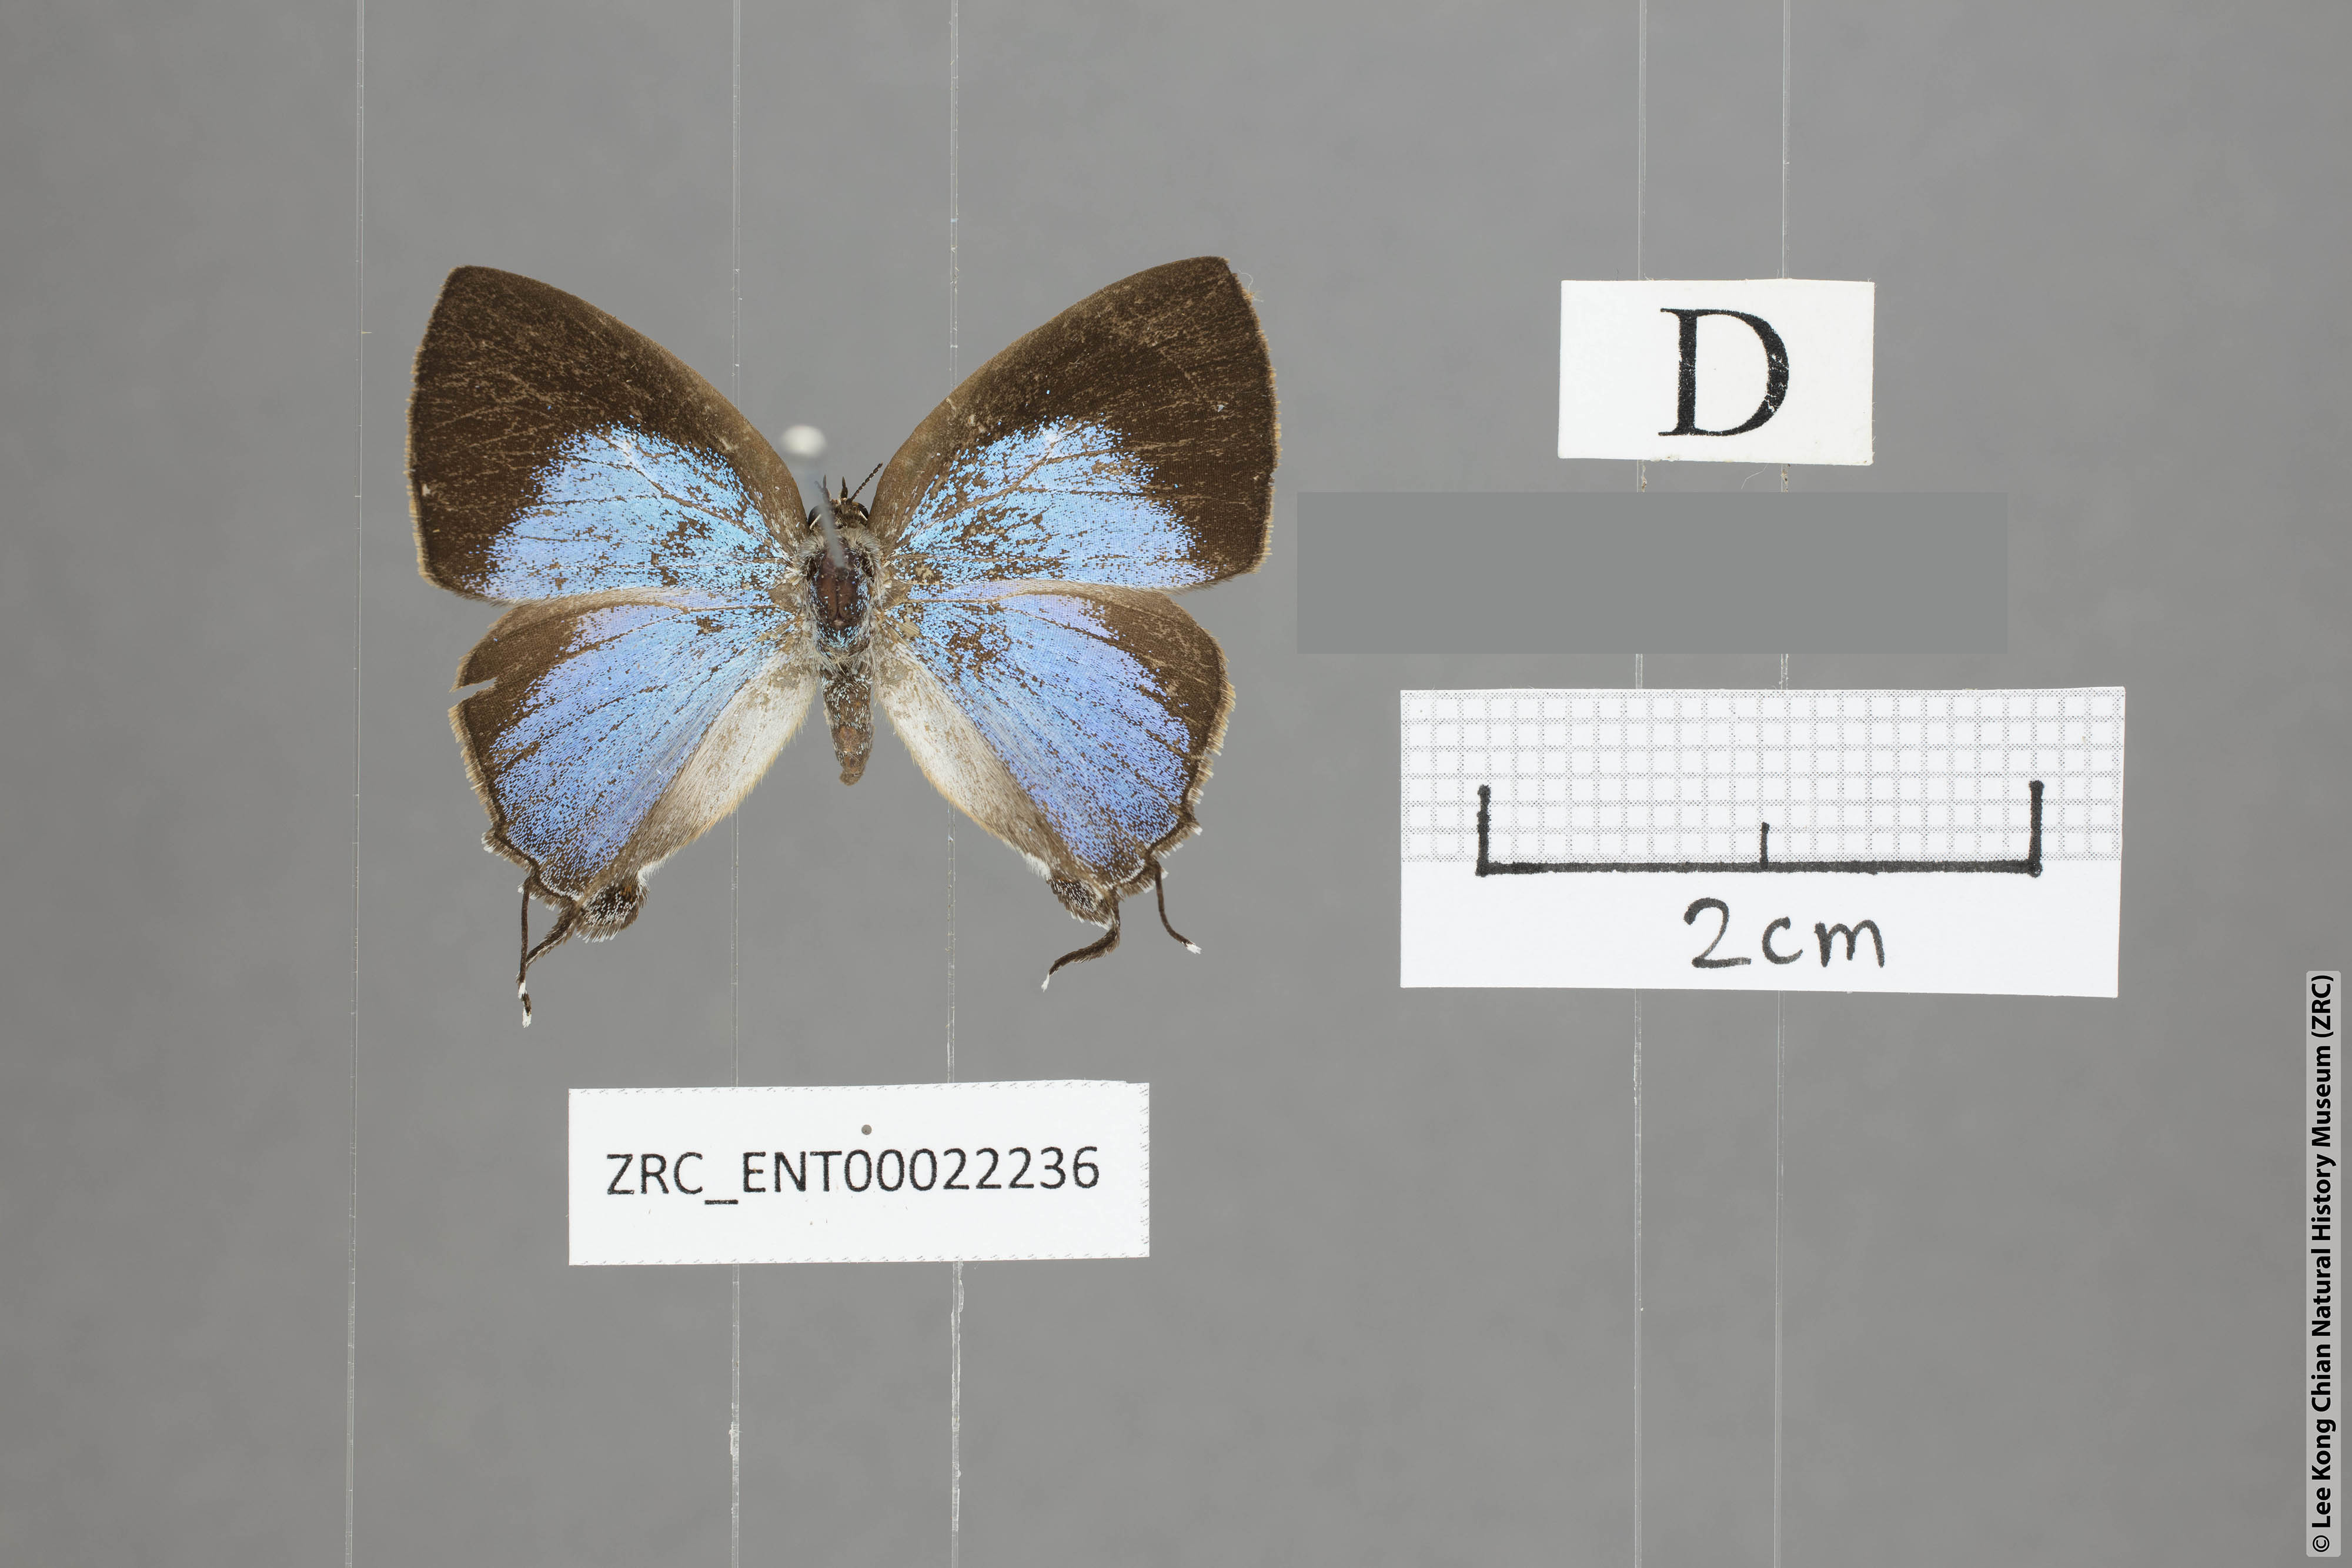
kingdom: Animalia
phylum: Arthropoda
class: Insecta
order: Lepidoptera
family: Lycaenidae
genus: Tajuria
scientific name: Tajuria yajna
